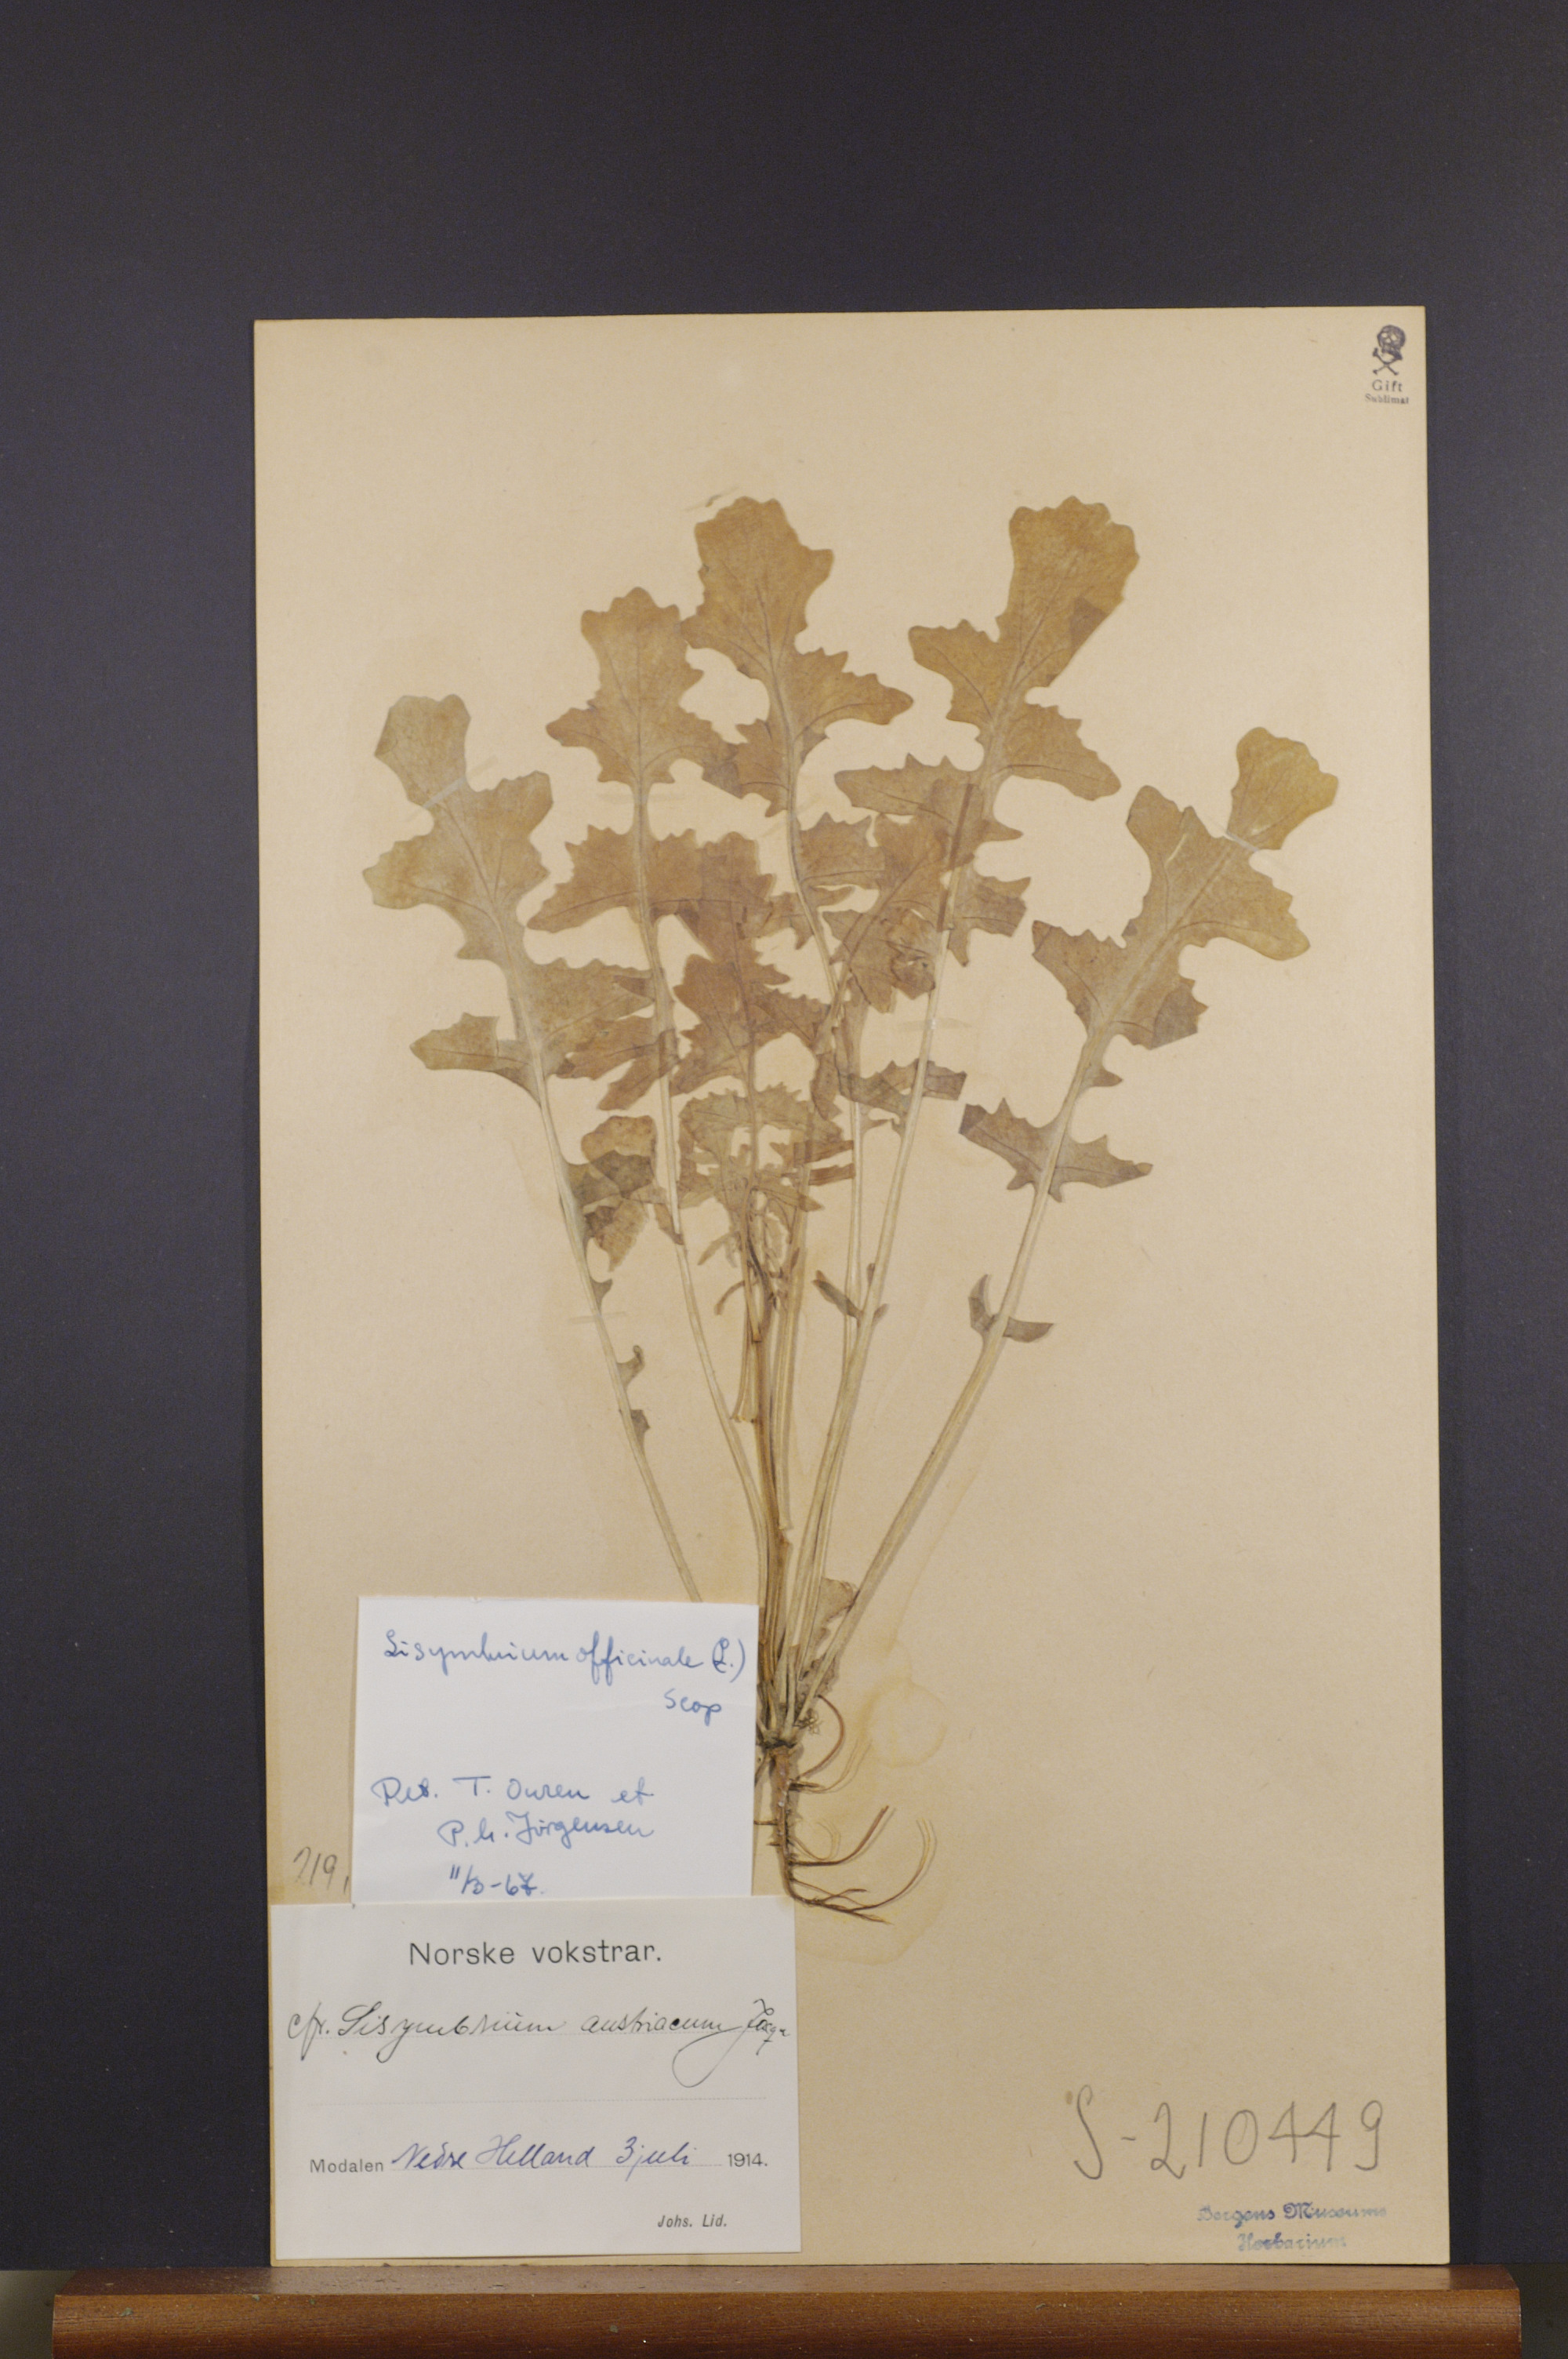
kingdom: Plantae
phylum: Tracheophyta
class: Magnoliopsida
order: Brassicales
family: Brassicaceae
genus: Sisymbrium
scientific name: Sisymbrium officinale
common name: Hedge mustard
